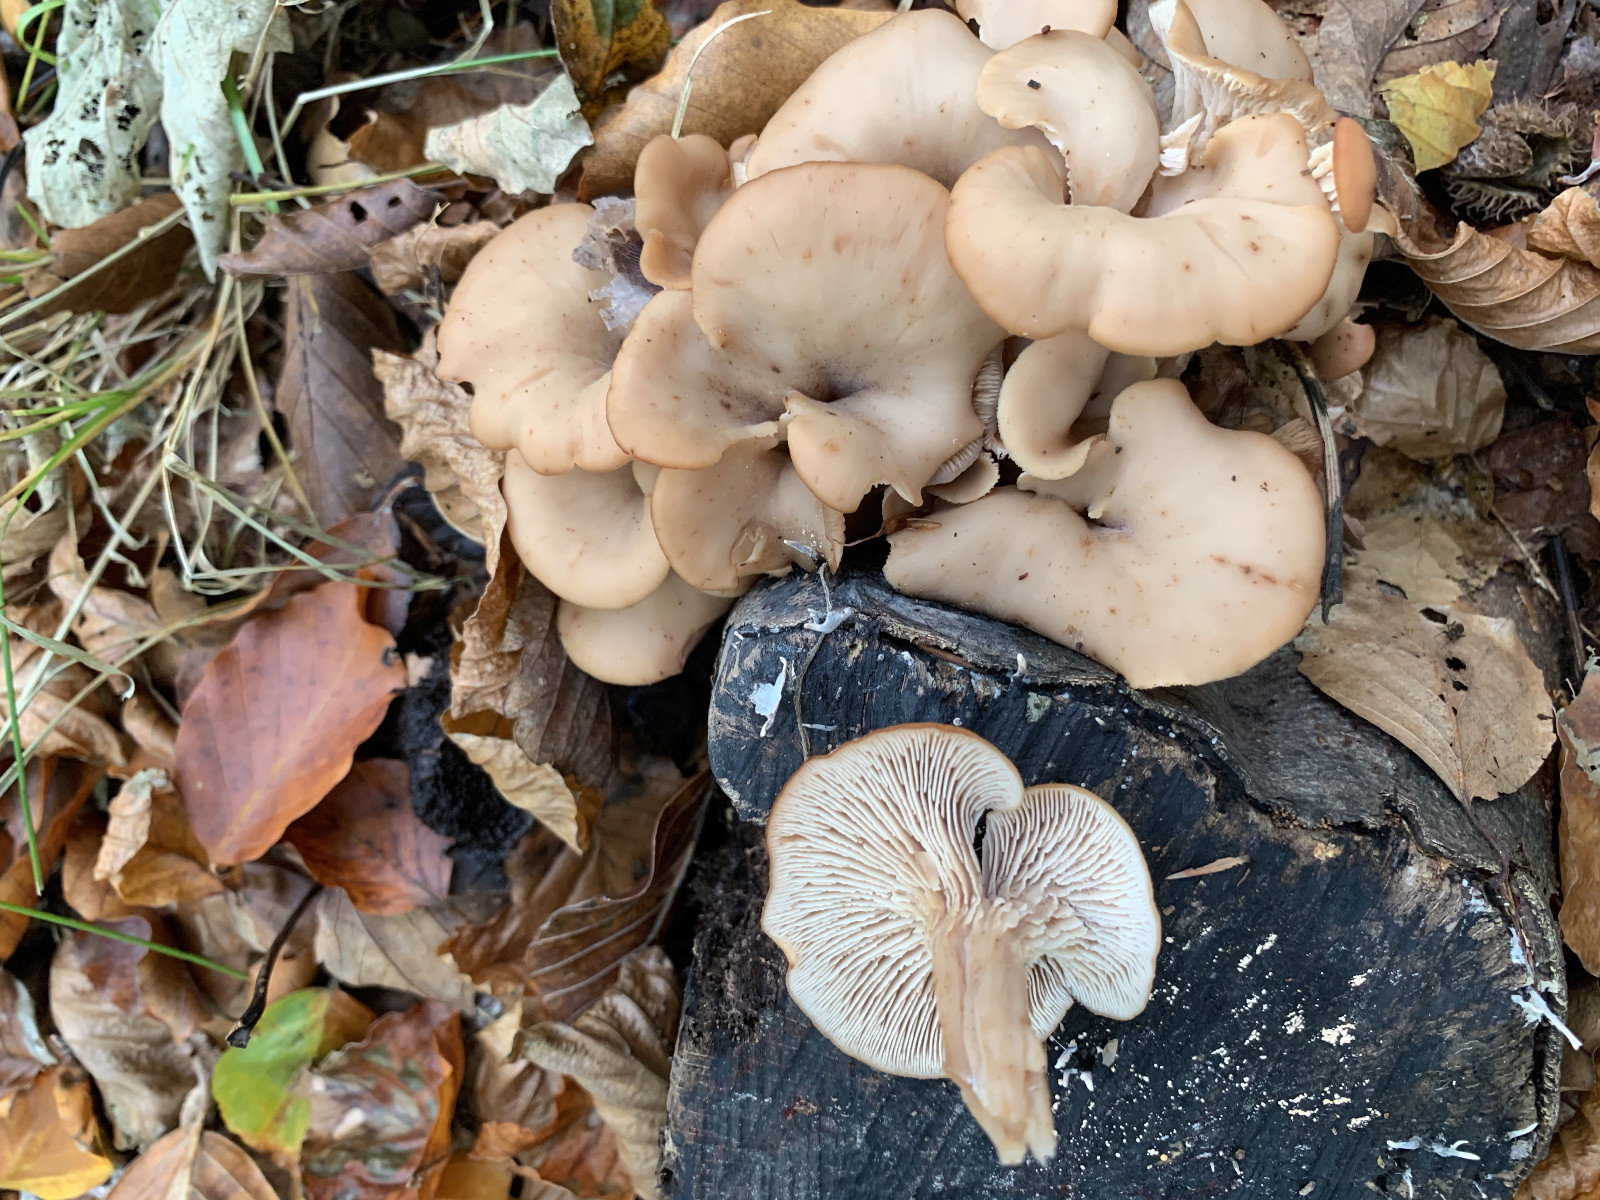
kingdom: Fungi
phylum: Basidiomycota
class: Agaricomycetes
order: Russulales
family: Auriscalpiaceae
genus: Lentinellus
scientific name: Lentinellus cochleatus
